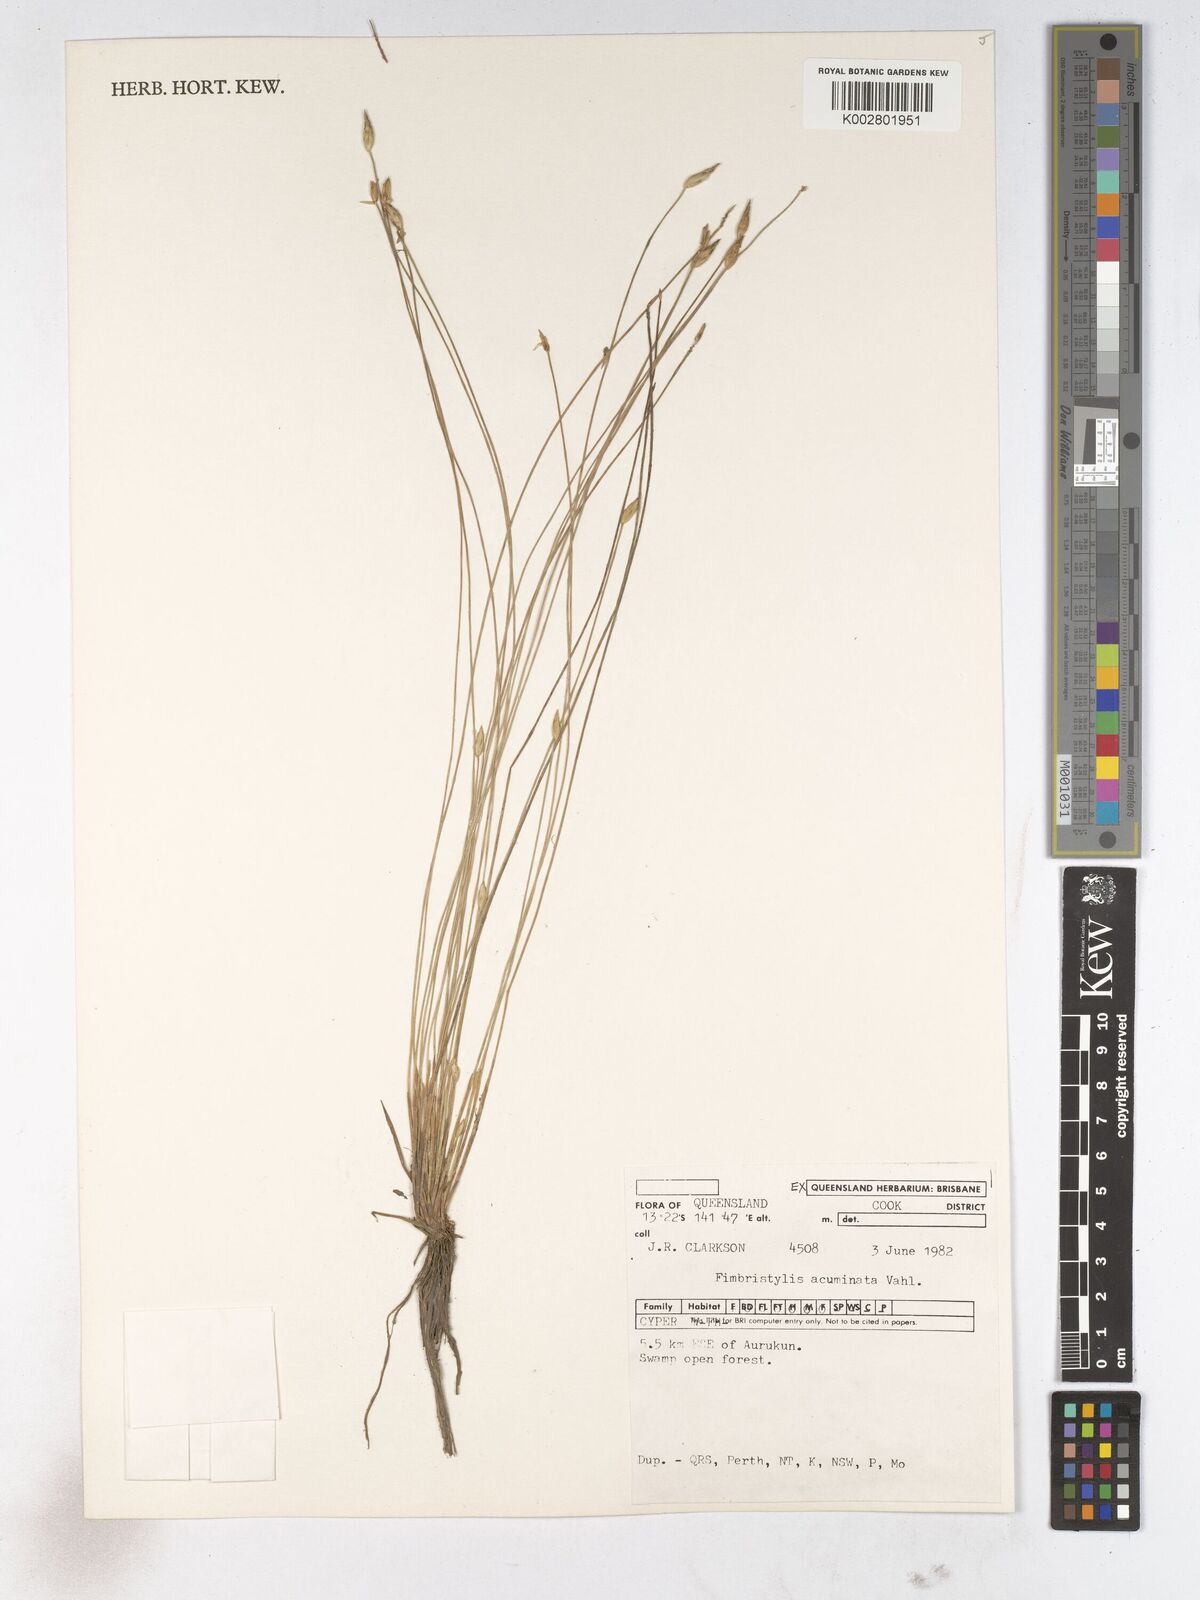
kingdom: Plantae
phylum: Tracheophyta
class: Liliopsida
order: Poales
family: Cyperaceae
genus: Fimbristylis
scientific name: Fimbristylis acuminata
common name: Pointed fimbristylis
